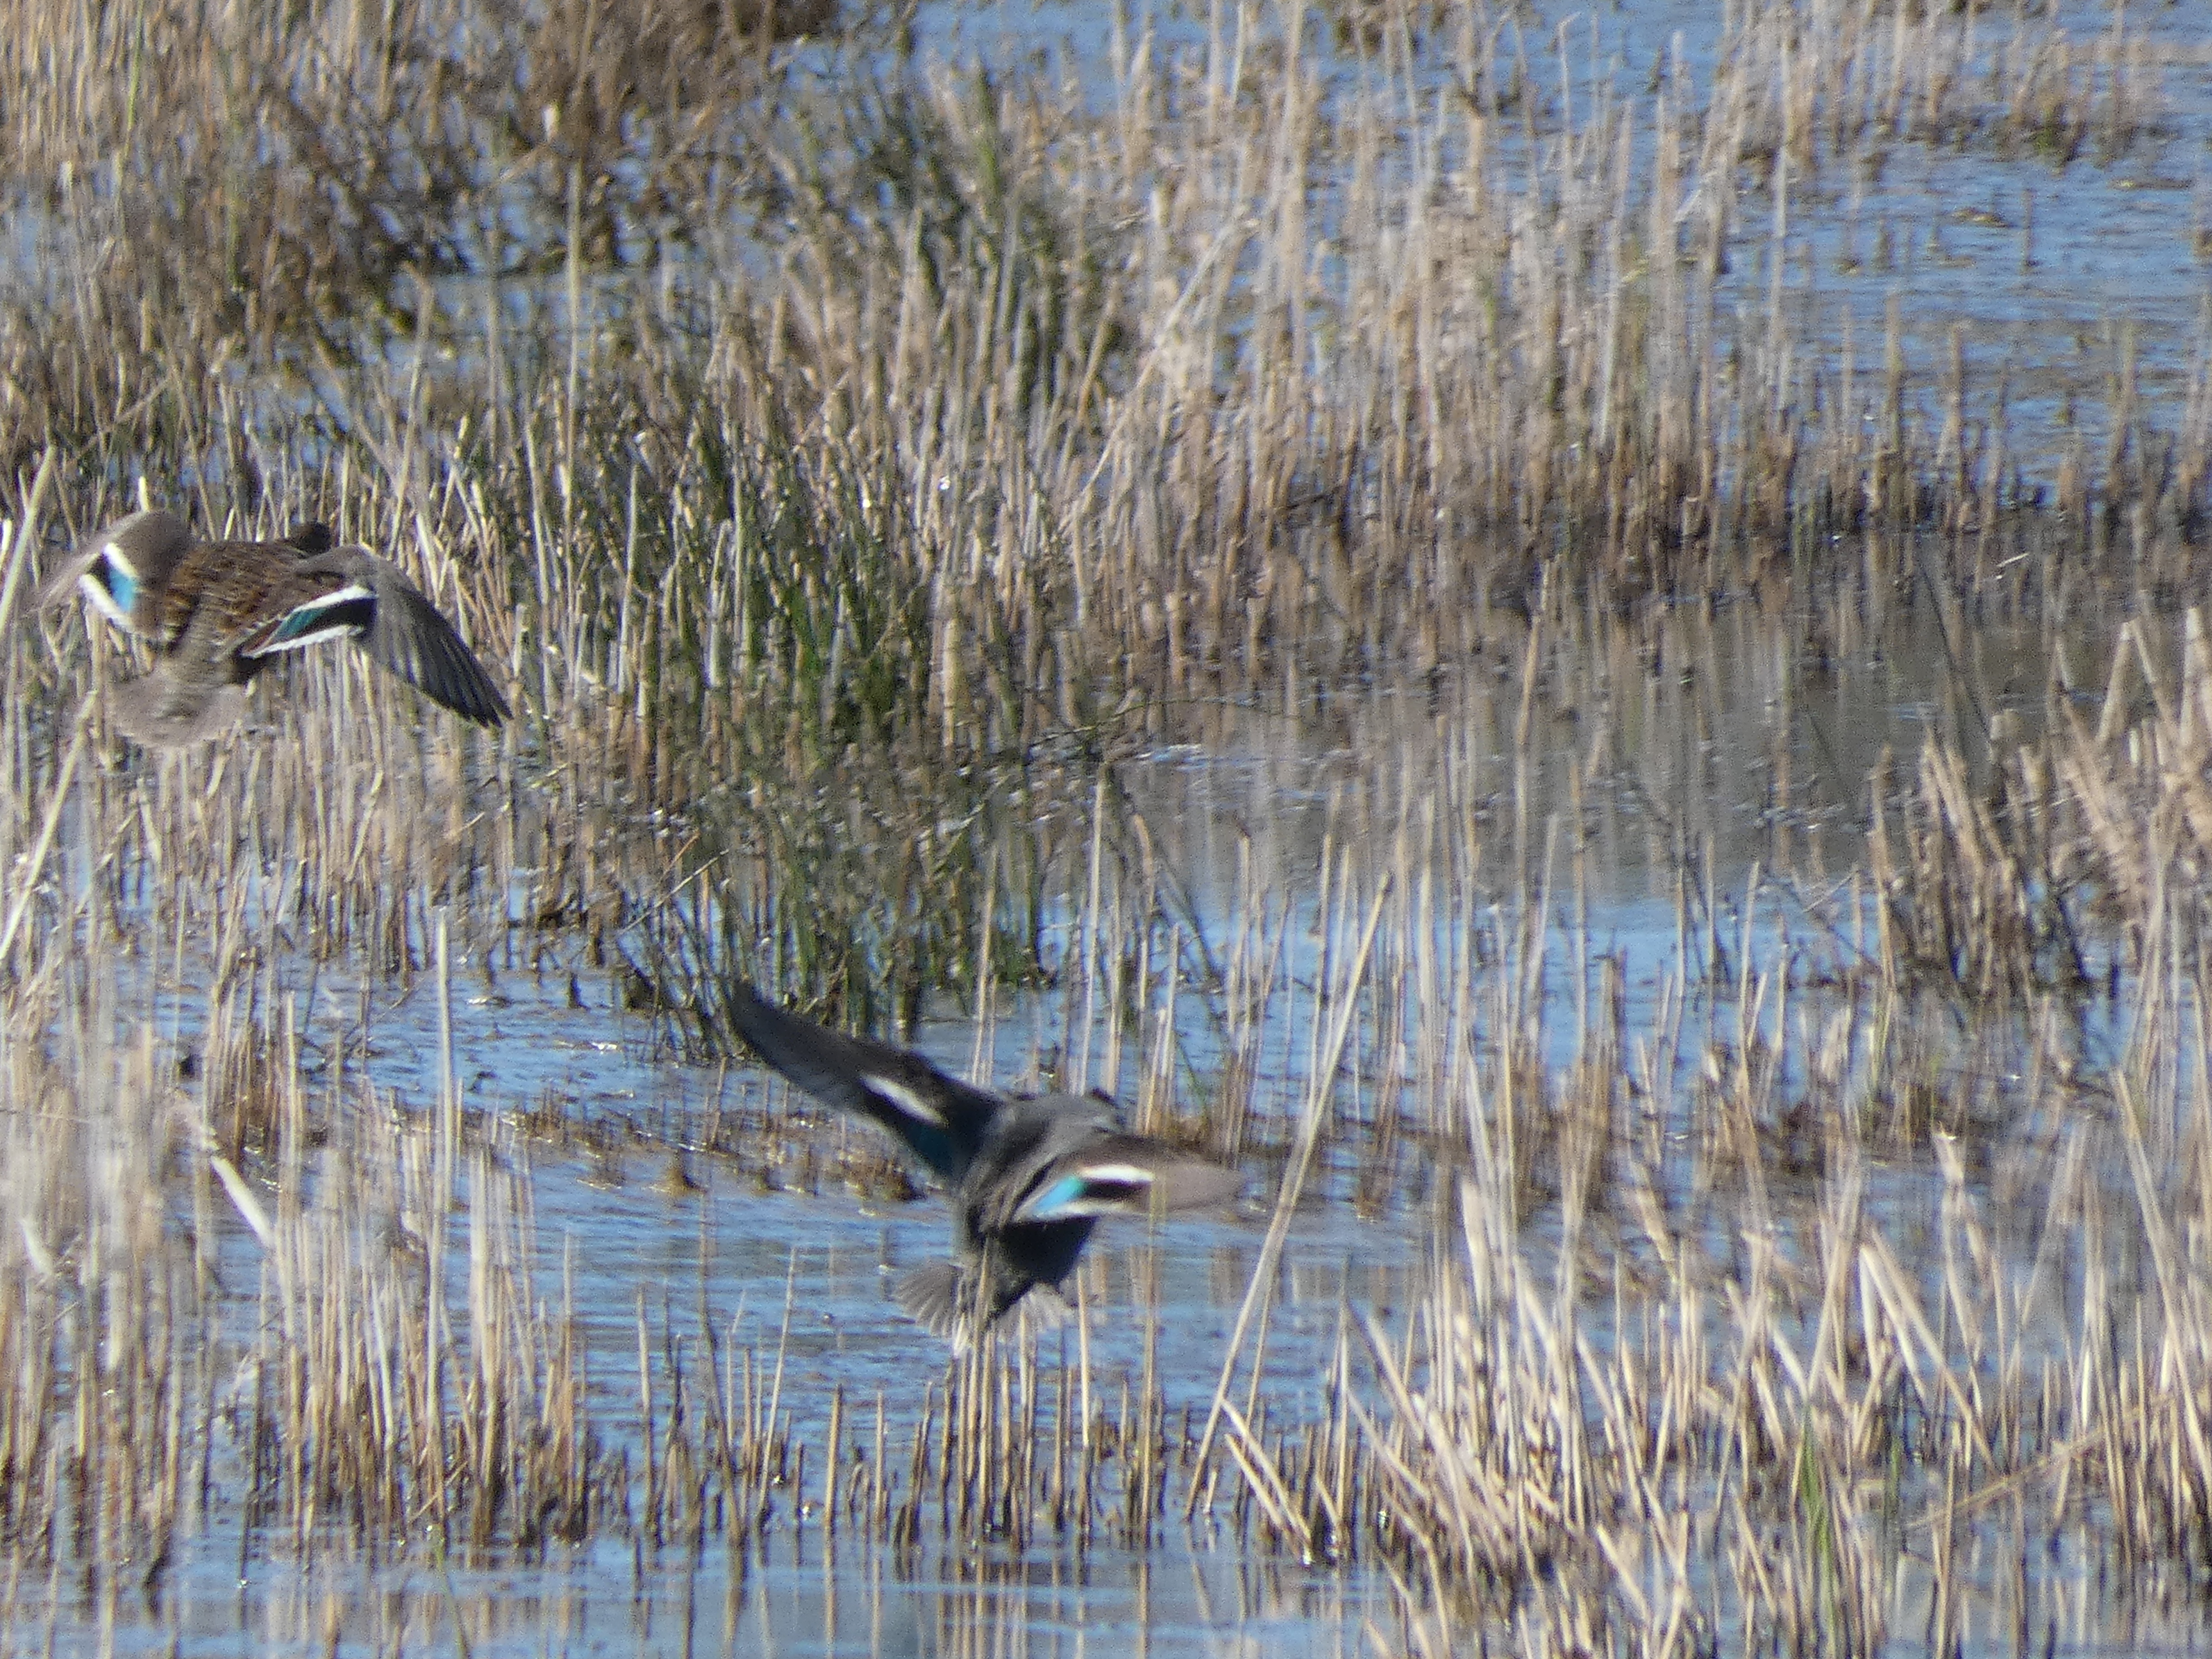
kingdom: Animalia
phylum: Chordata
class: Aves
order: Anseriformes
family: Anatidae
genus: Anas
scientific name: Anas crecca
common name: Krikand
